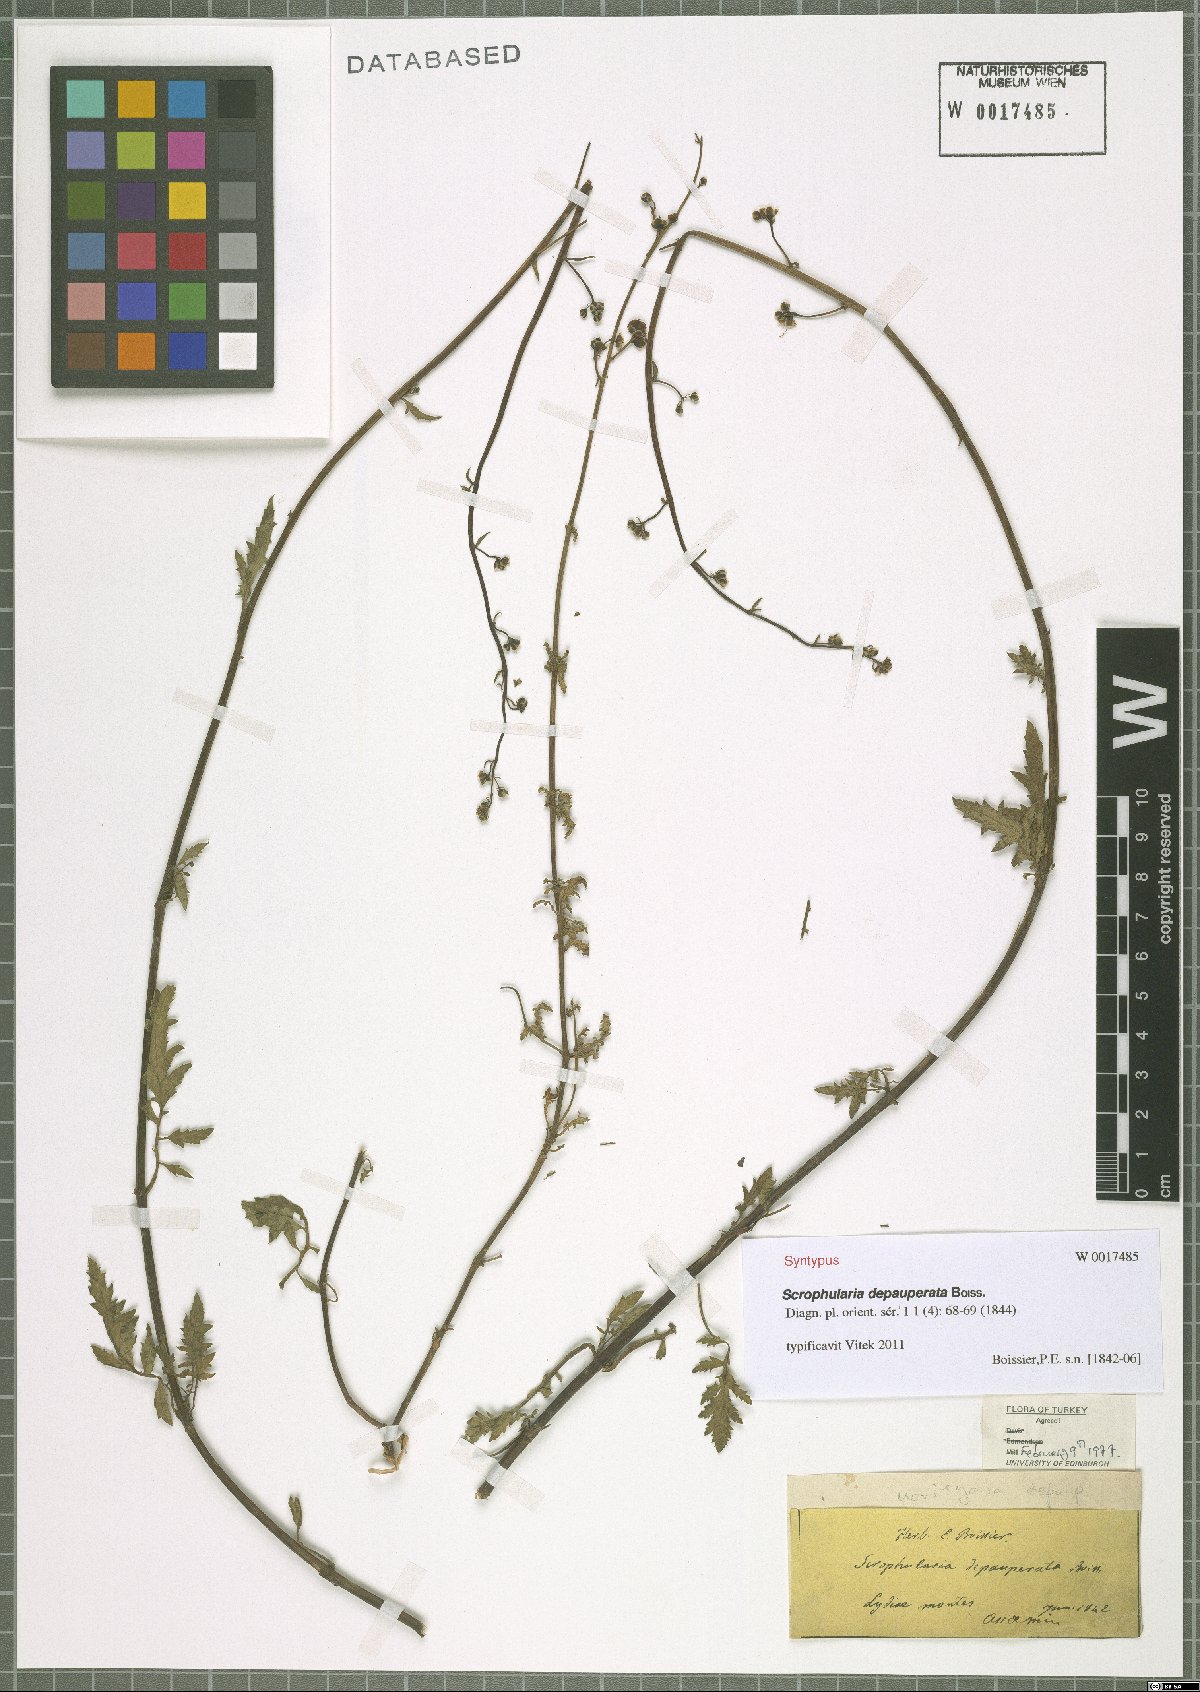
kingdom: Plantae
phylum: Tracheophyta
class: Magnoliopsida
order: Lamiales
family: Scrophulariaceae
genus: Scrophularia
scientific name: Scrophularia depauperata
